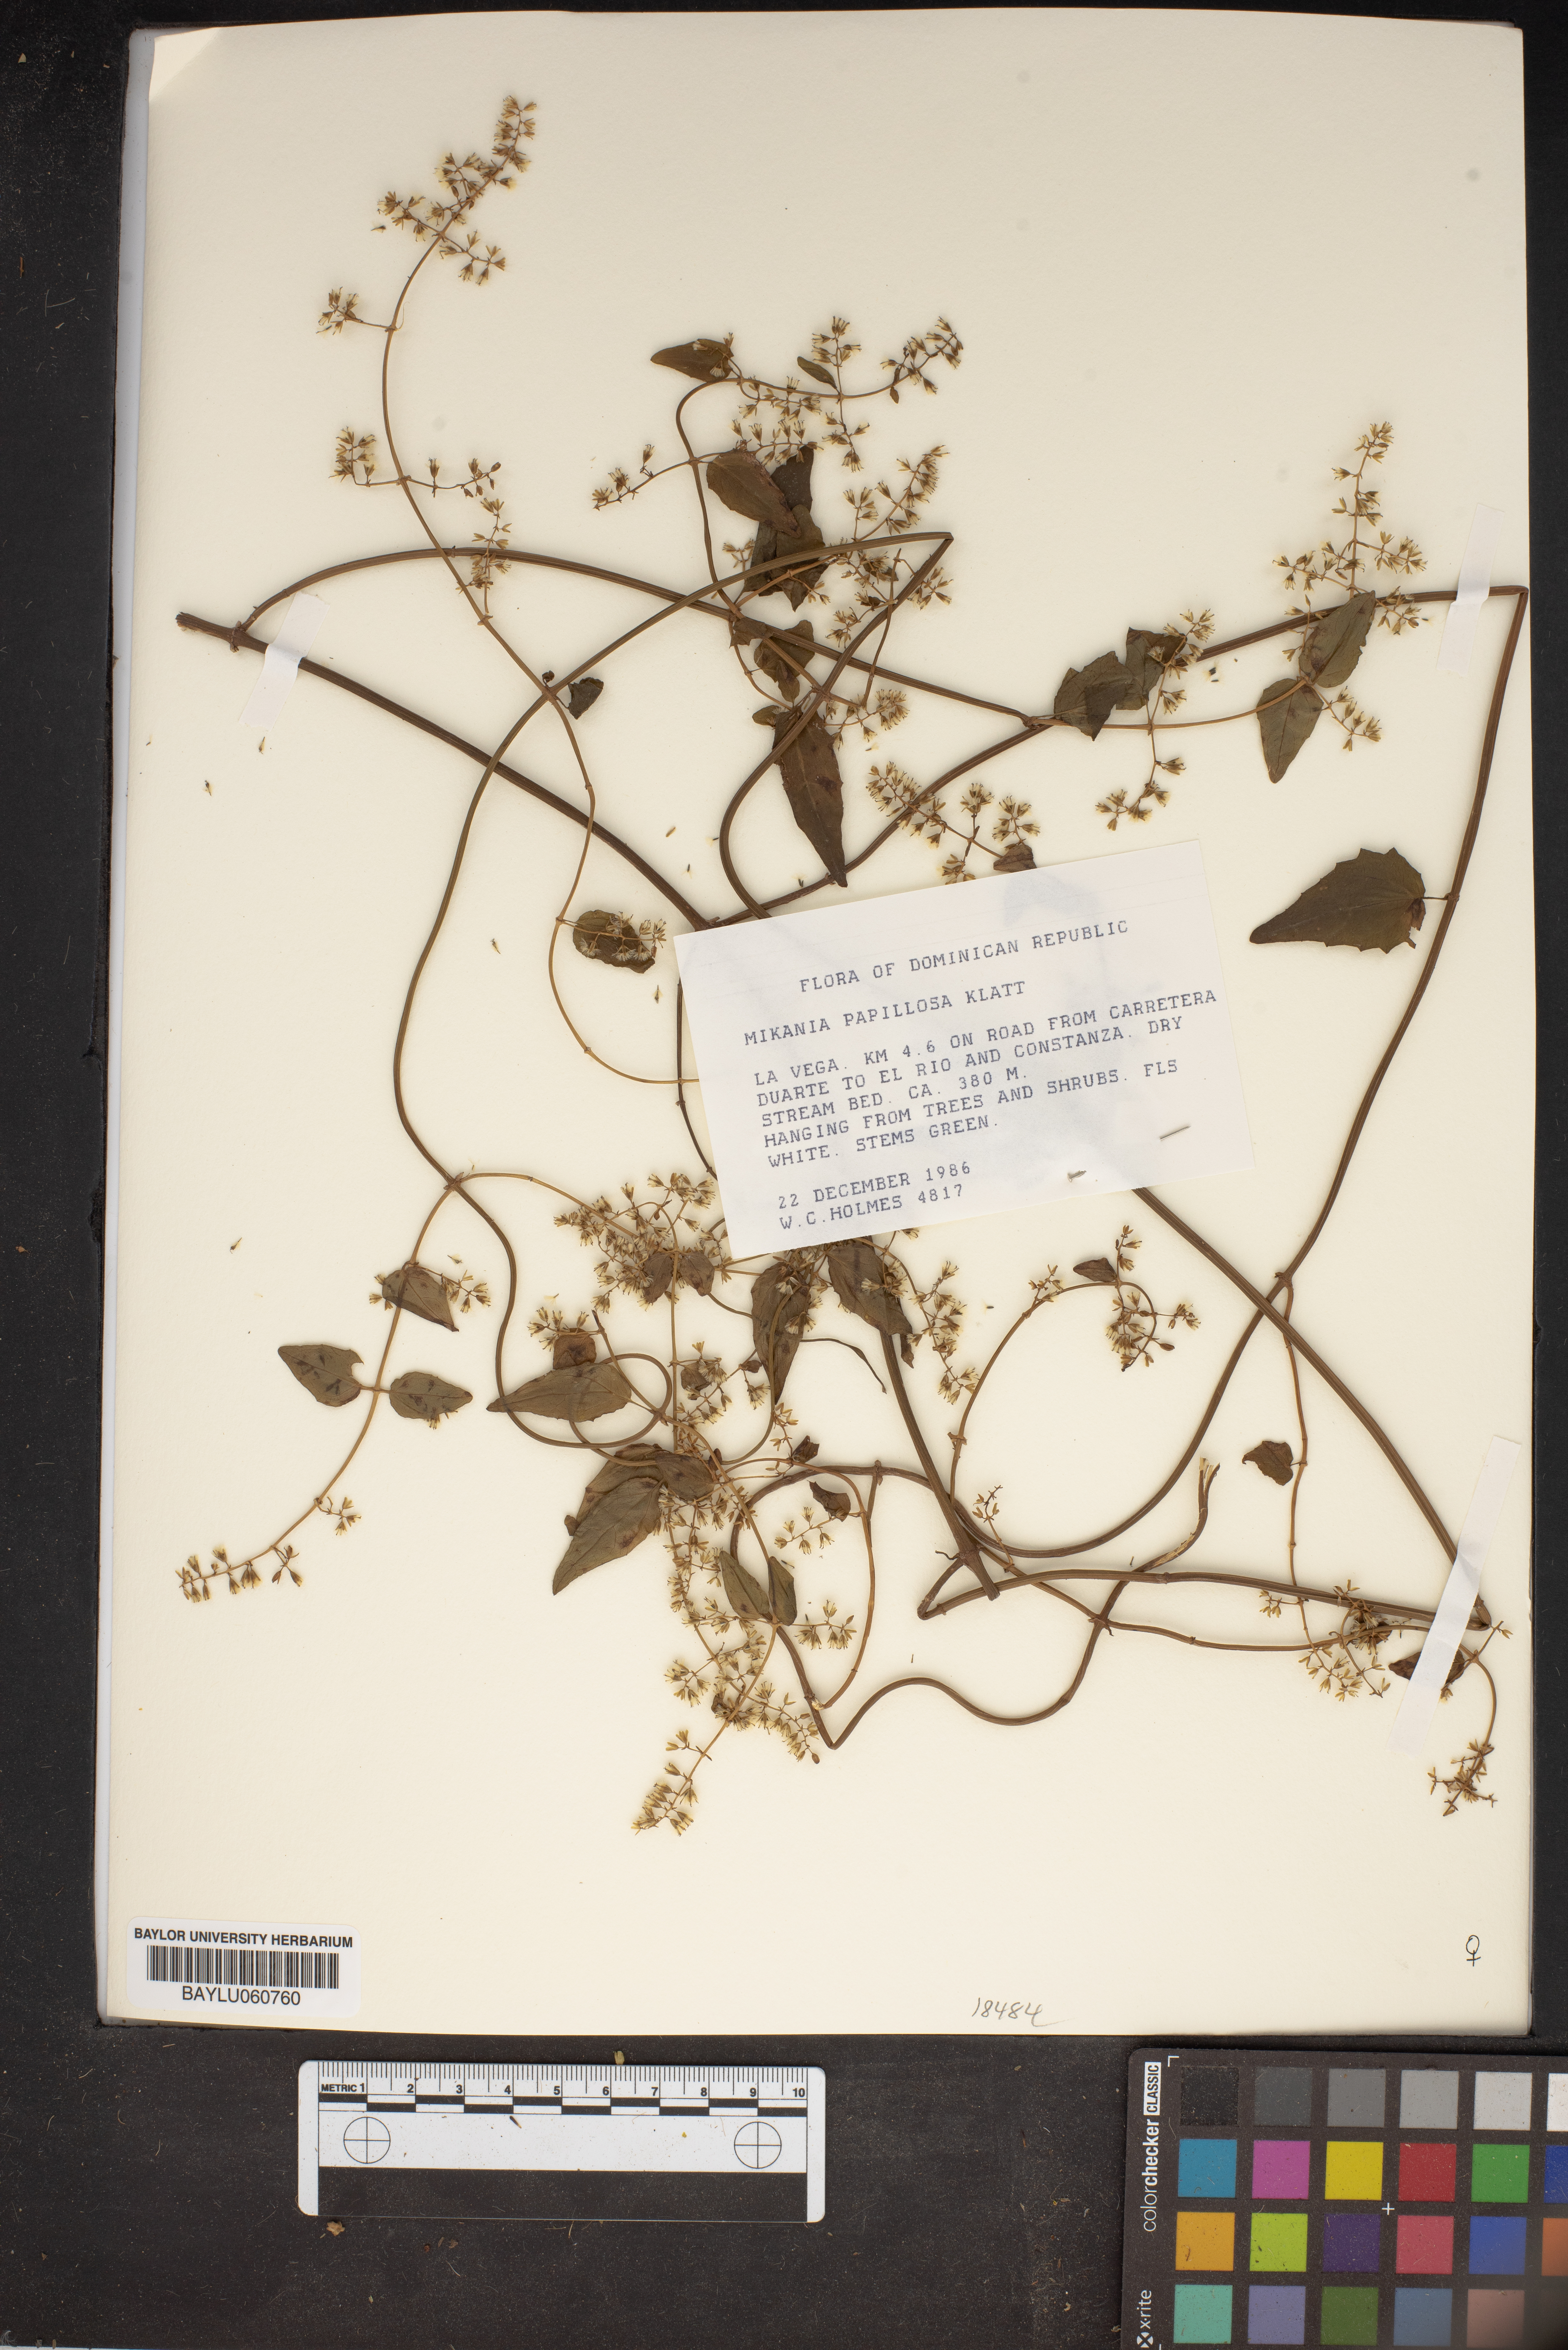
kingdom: Plantae
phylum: Tracheophyta
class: Magnoliopsida
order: Asterales
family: Asteraceae
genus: Mikania
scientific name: Mikania papillosa
